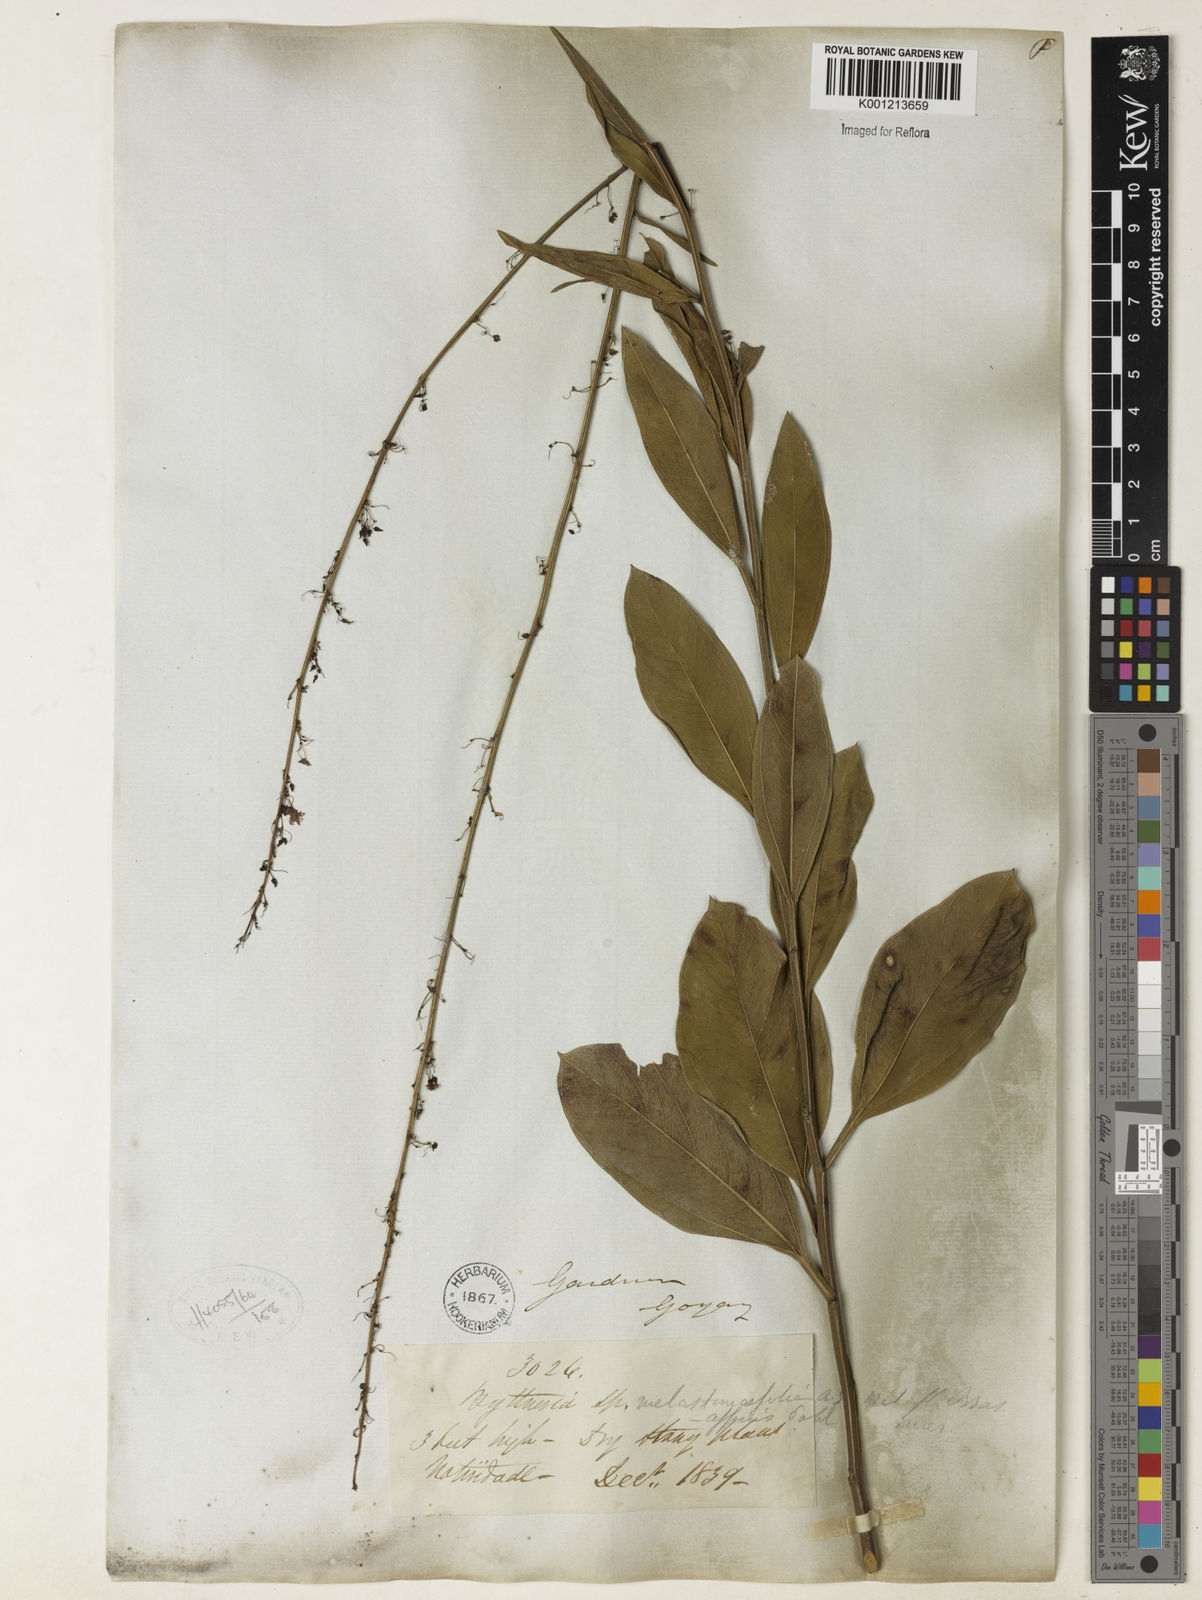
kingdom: Plantae
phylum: Tracheophyta
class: Magnoliopsida
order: Malvales
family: Malvaceae
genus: Byttneria
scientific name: Byttneria melastomifolia
